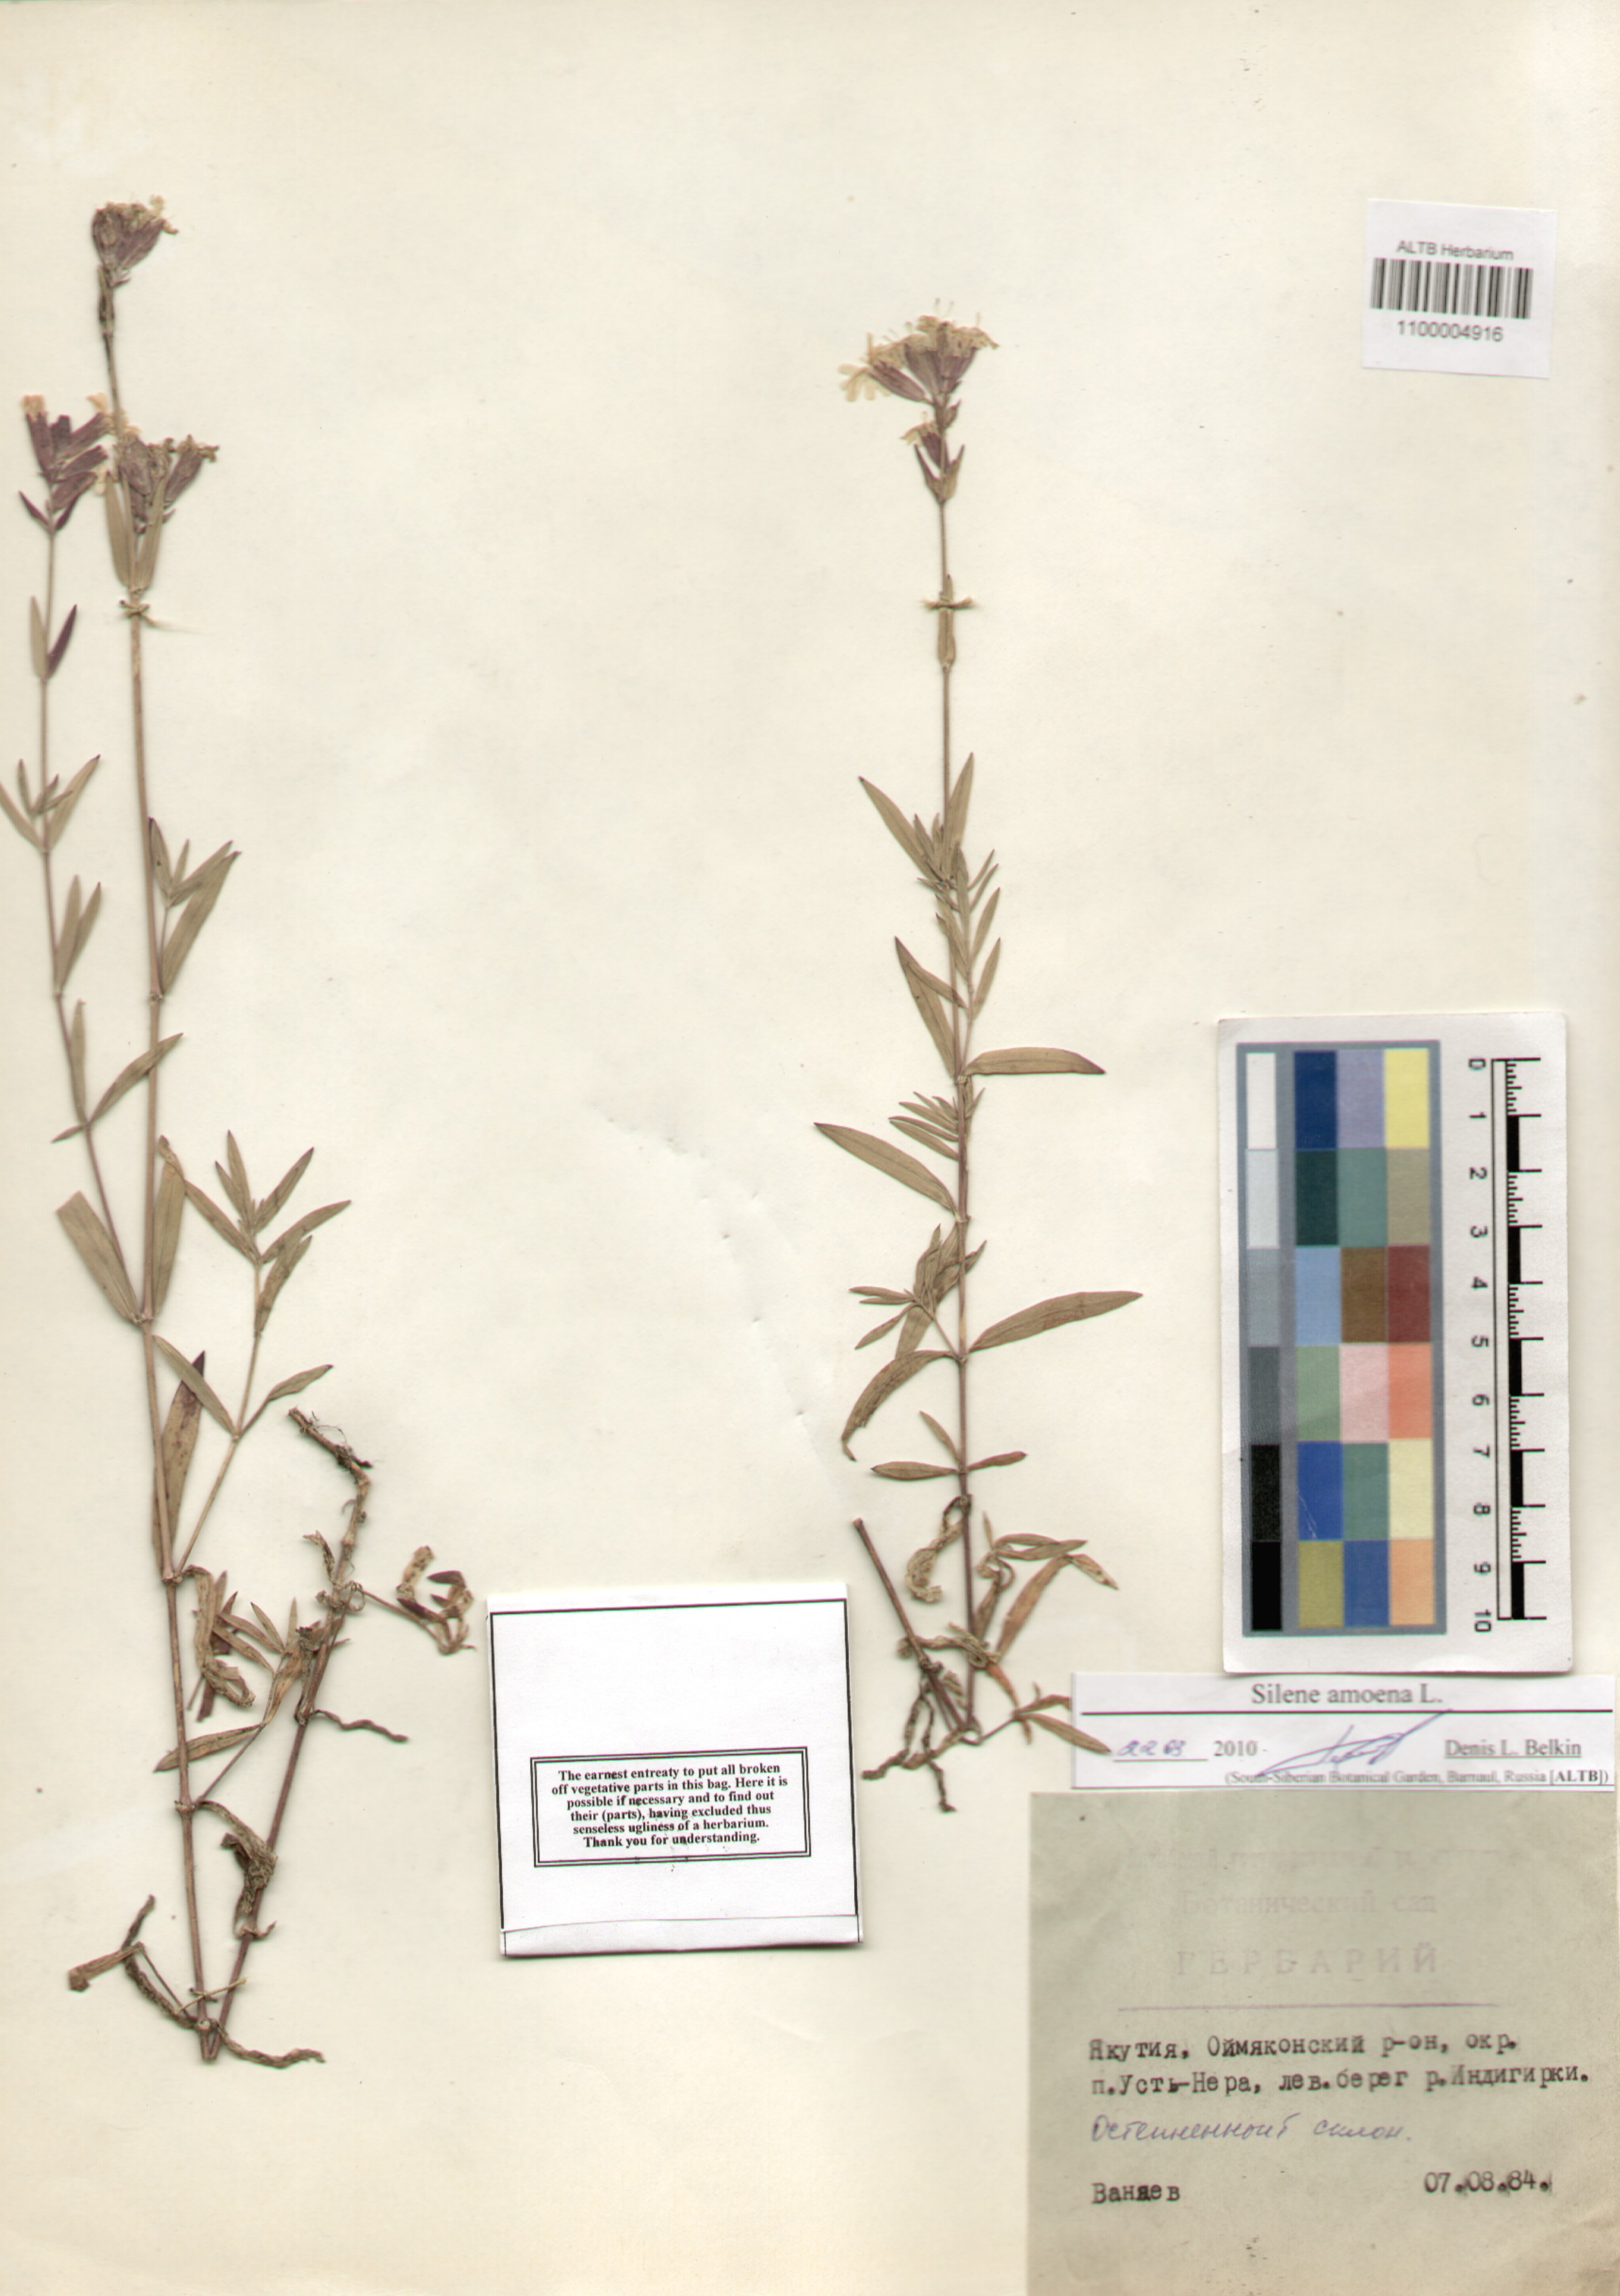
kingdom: Plantae
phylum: Tracheophyta
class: Magnoliopsida
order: Caryophyllales
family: Caryophyllaceae
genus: Silene
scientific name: Silene amoena
